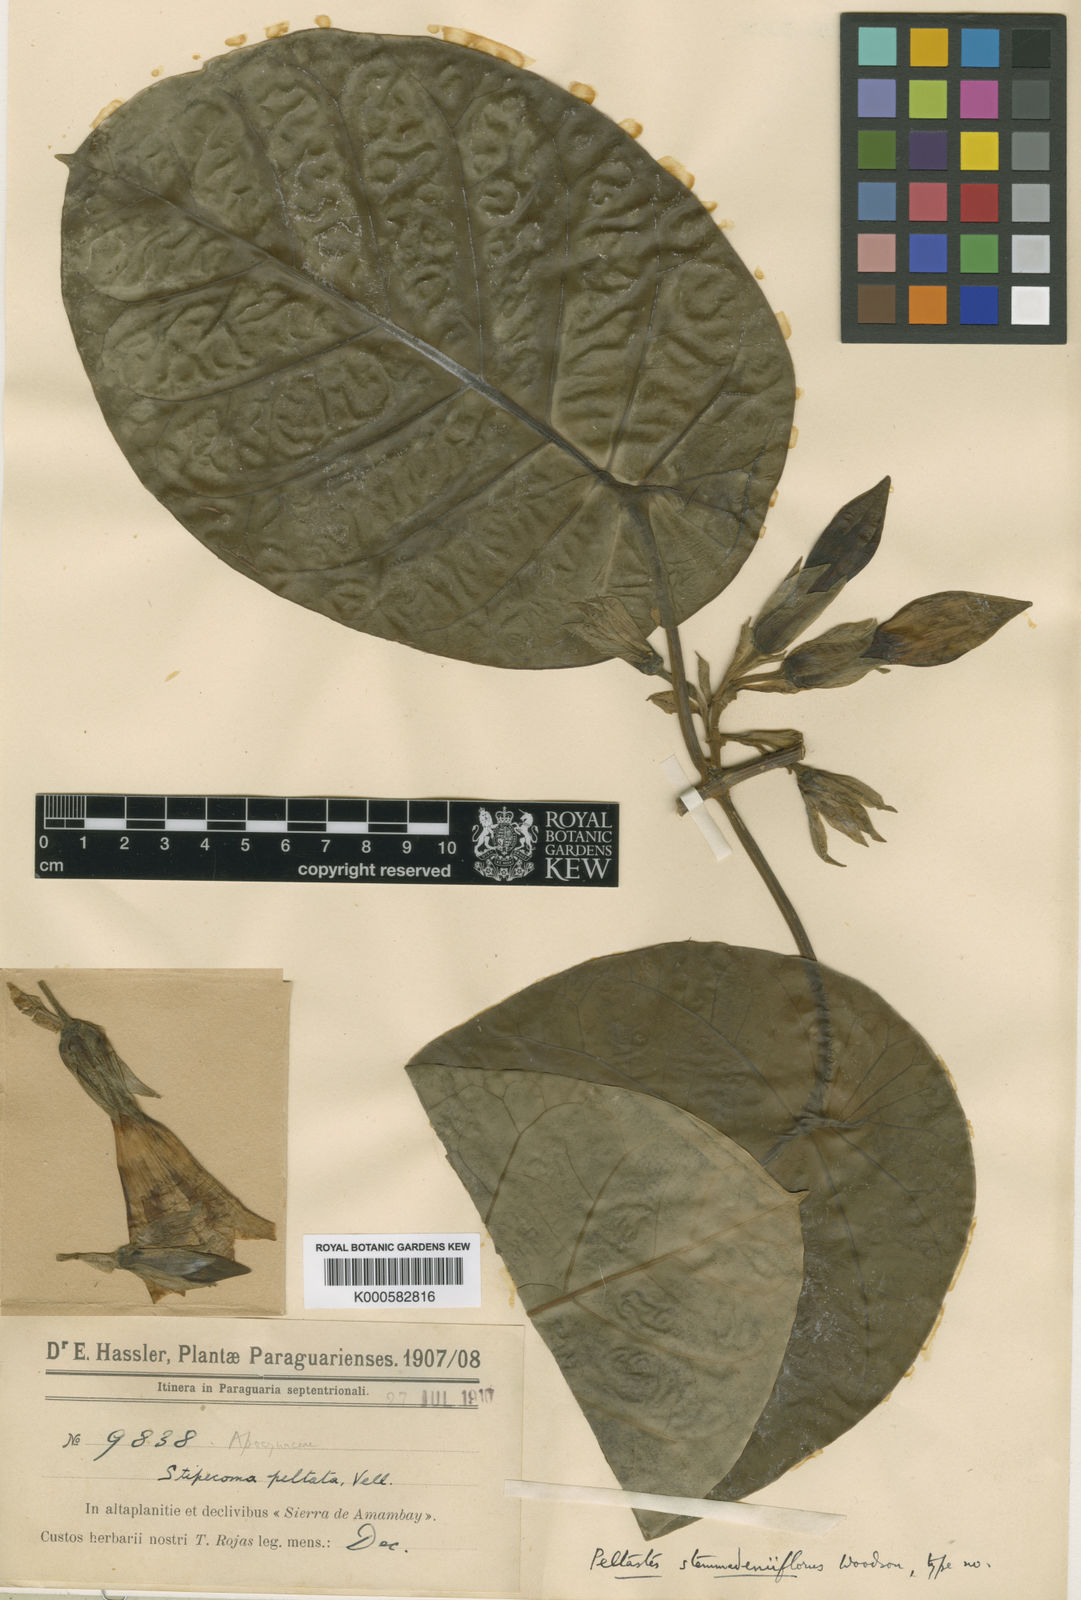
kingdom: Plantae
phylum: Tracheophyta
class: Magnoliopsida
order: Gentianales
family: Apocynaceae
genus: Macropharynx
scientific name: Macropharynx macrocalyx
